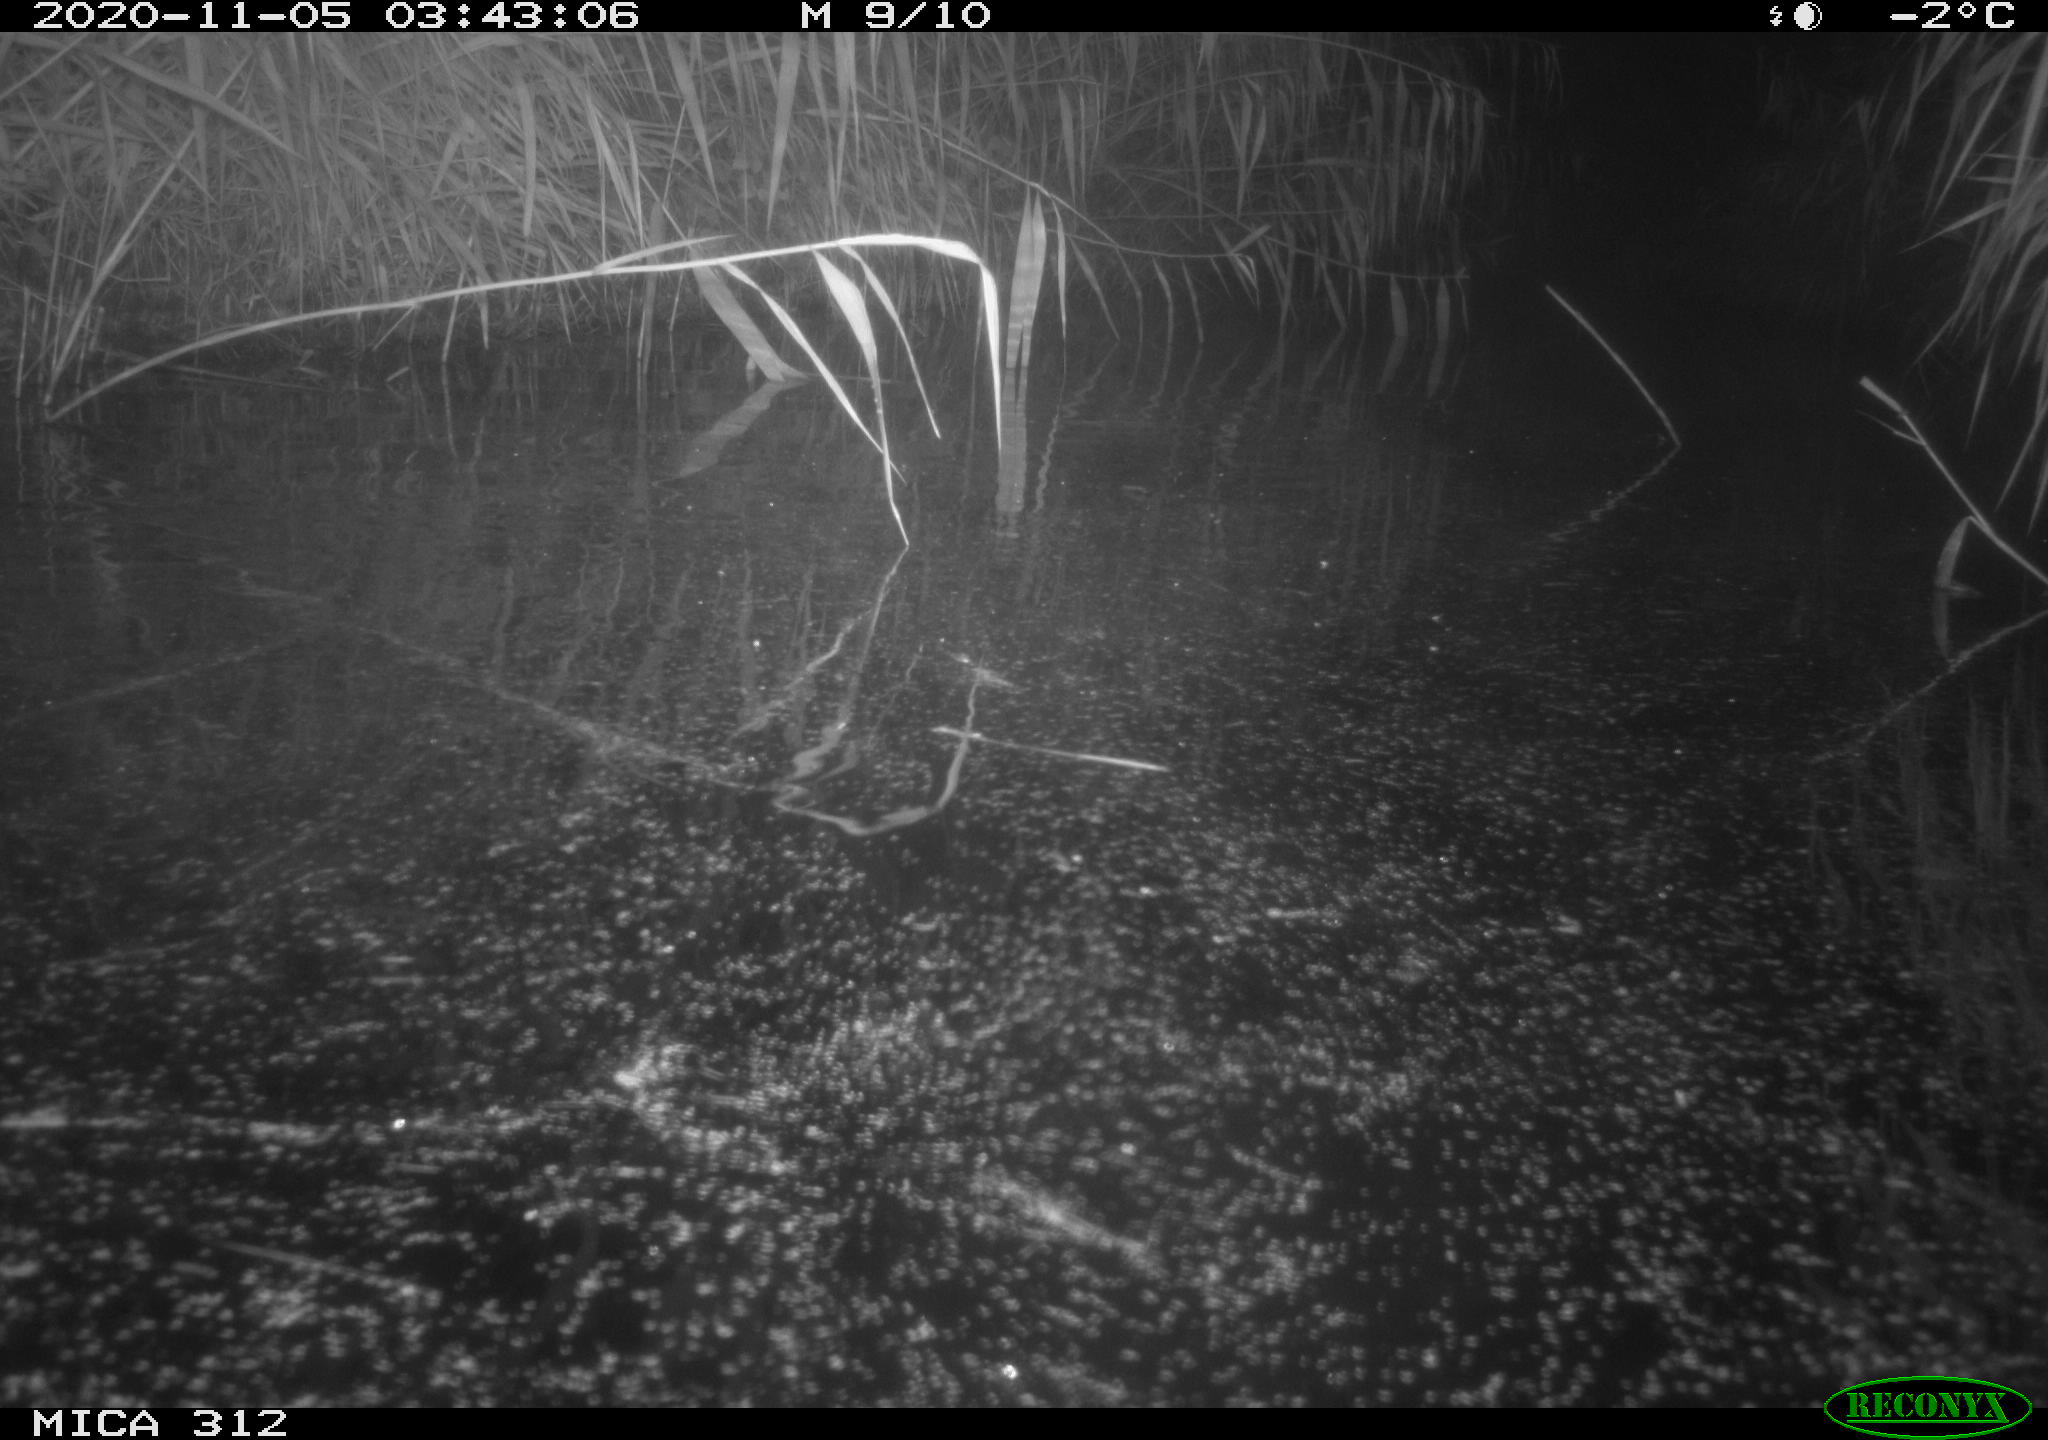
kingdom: Animalia
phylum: Chordata
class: Mammalia
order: Rodentia
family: Muridae
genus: Rattus
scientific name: Rattus norvegicus
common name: Brown rat
